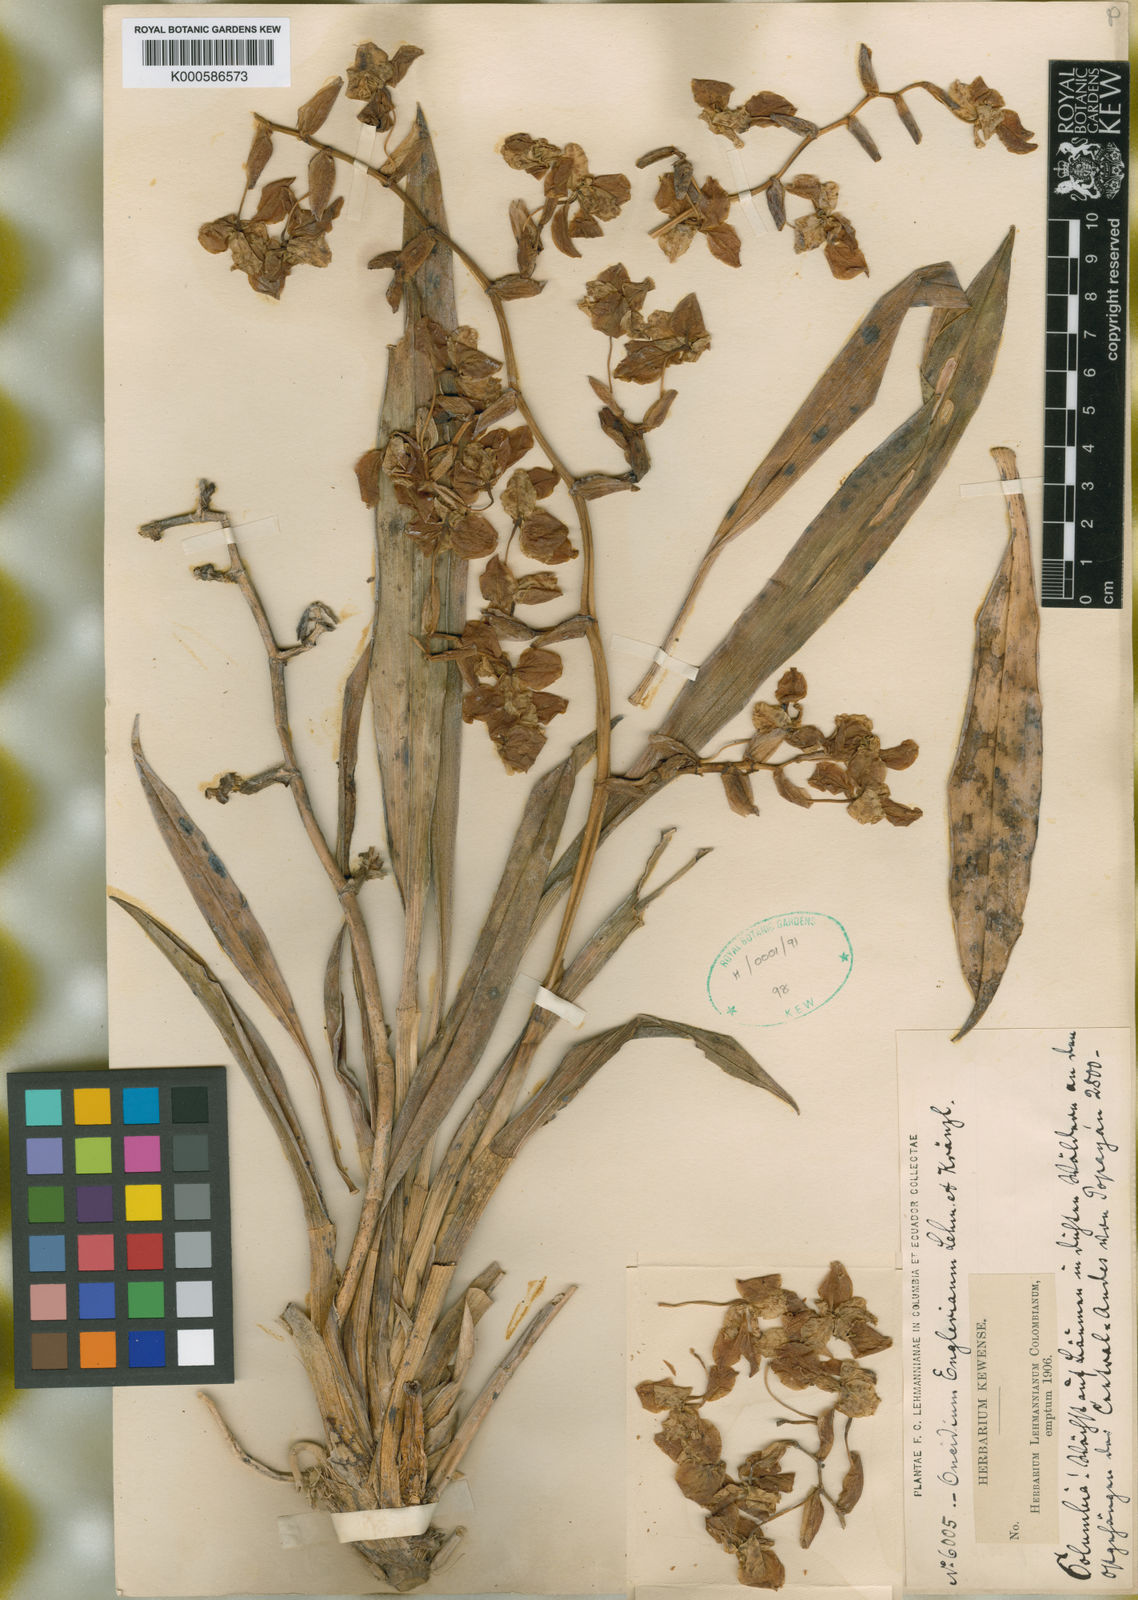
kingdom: Plantae
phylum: Tracheophyta
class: Liliopsida
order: Asparagales
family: Orchidaceae
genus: Cyrtochilum
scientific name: Cyrtochilum englerianum
